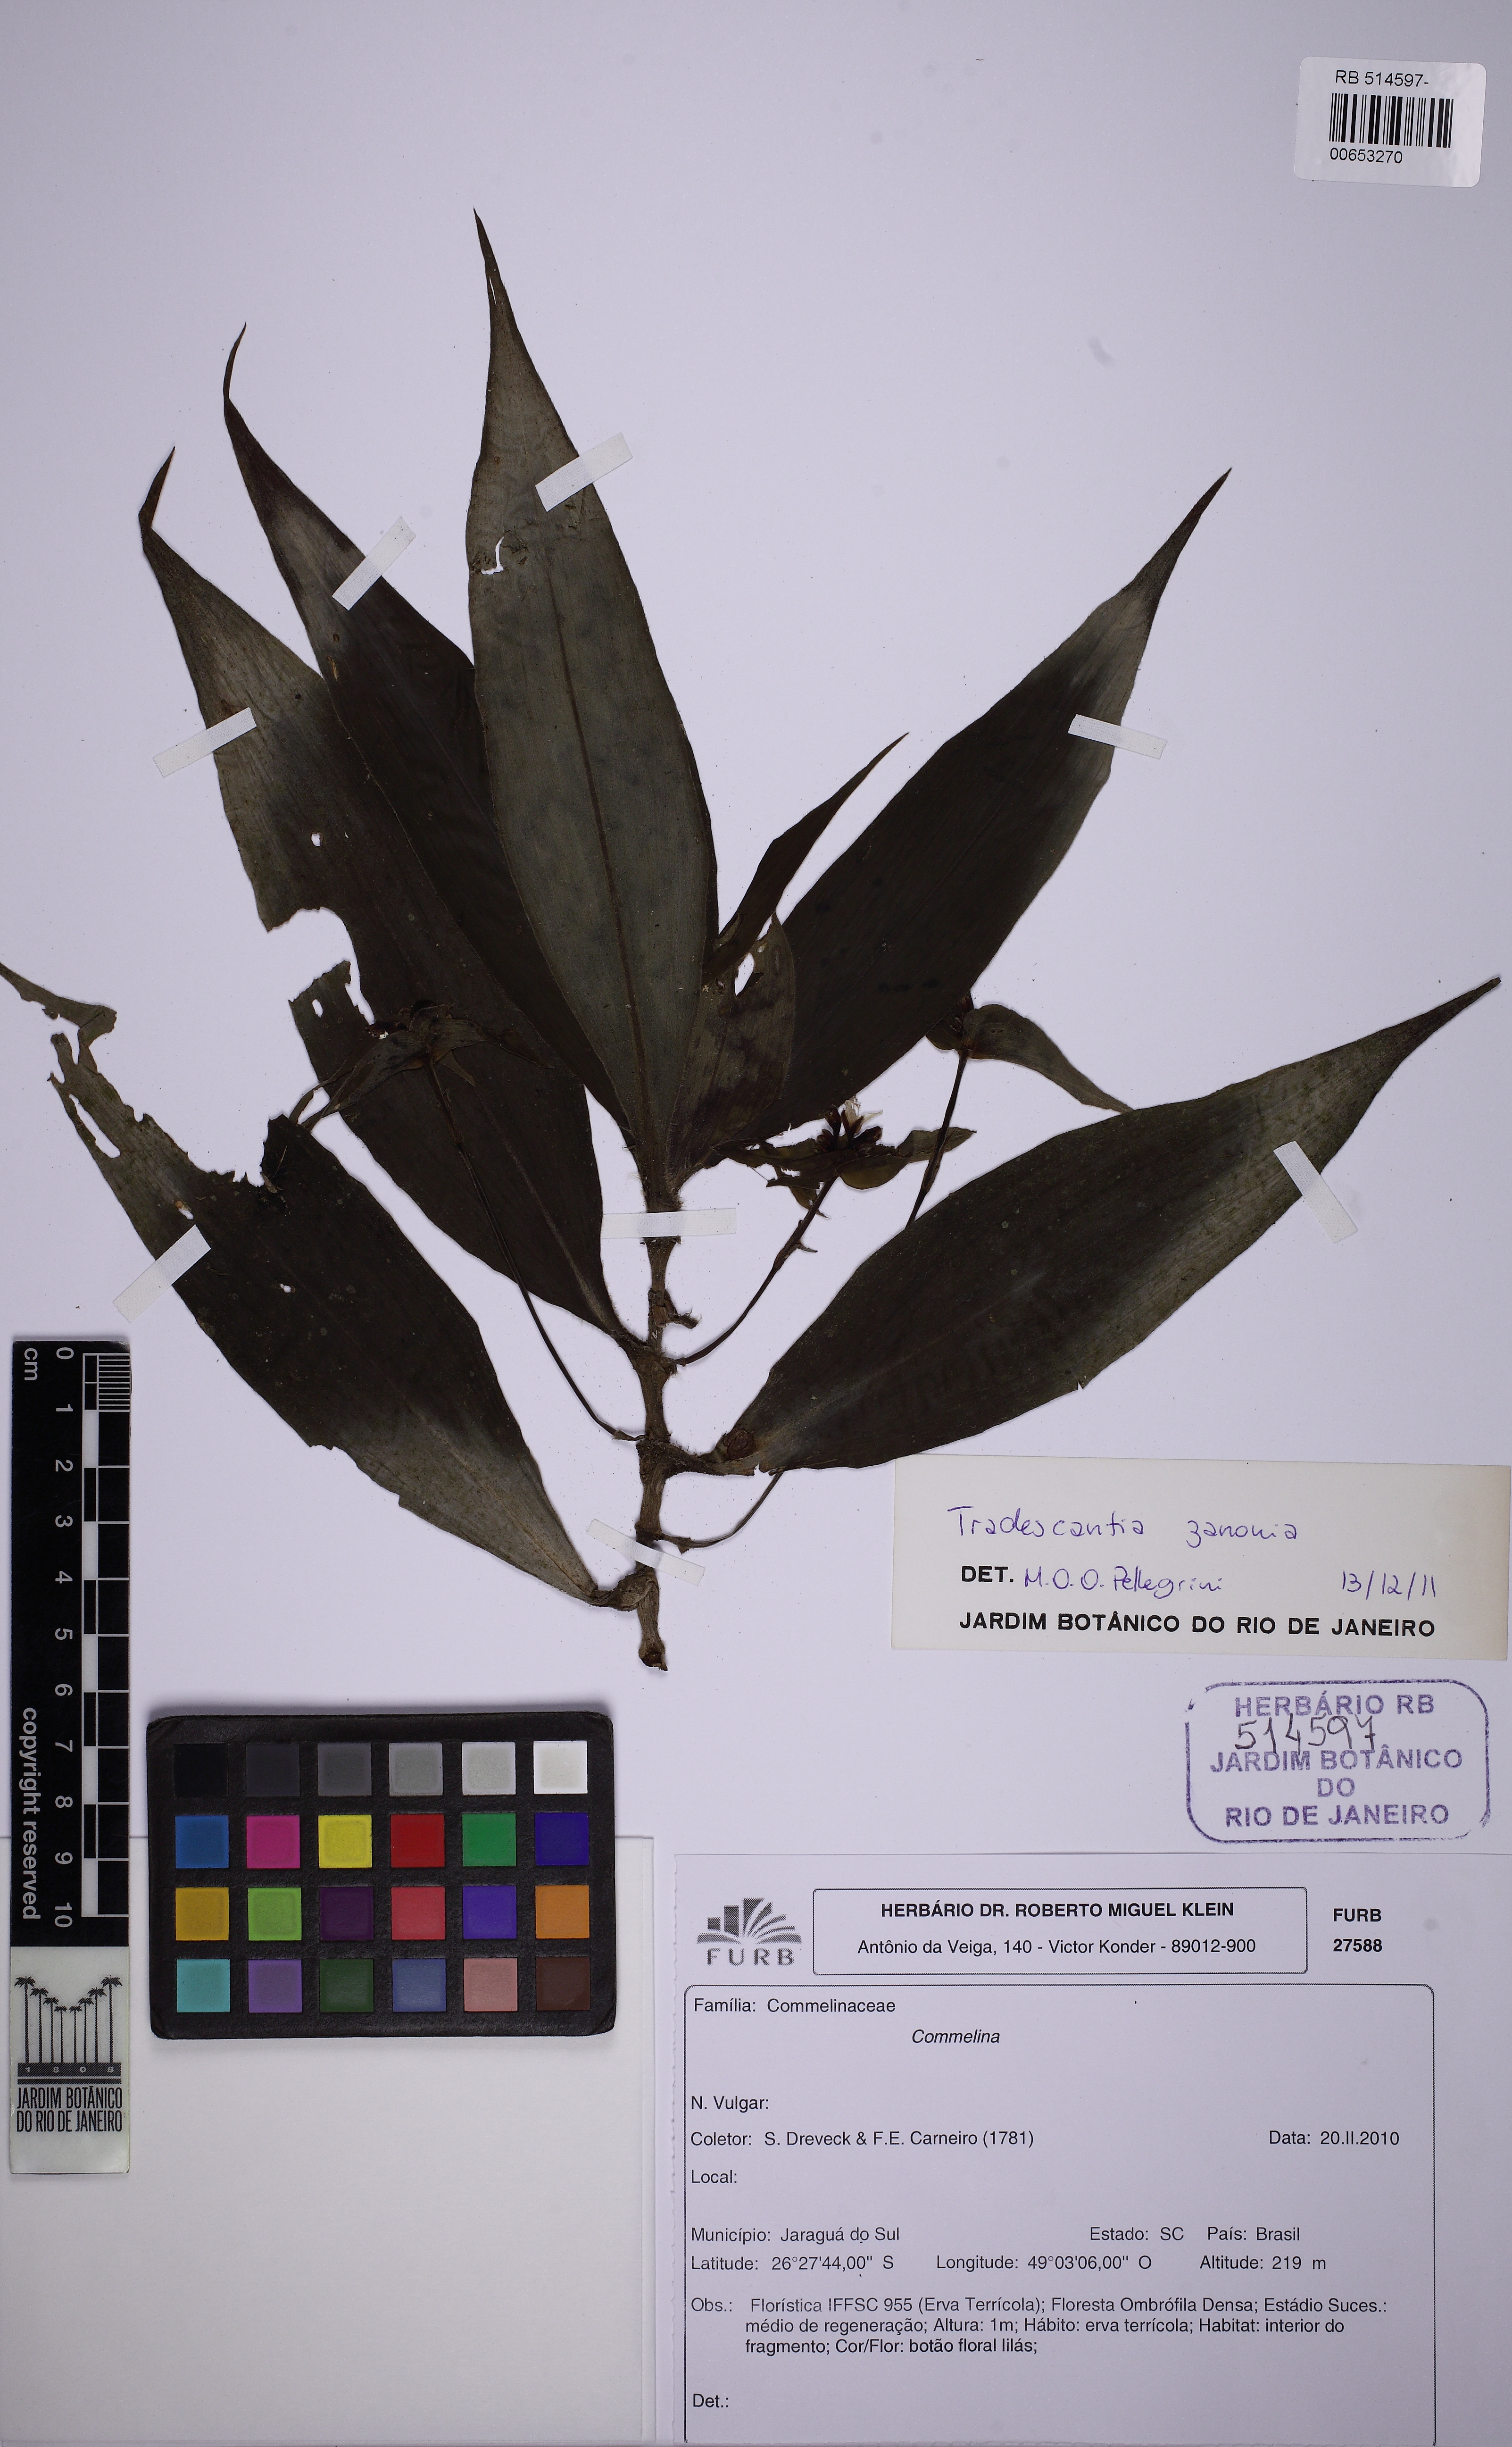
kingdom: Plantae
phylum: Tracheophyta
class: Liliopsida
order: Commelinales
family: Commelinaceae
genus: Tradescantia
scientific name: Tradescantia zanonia
